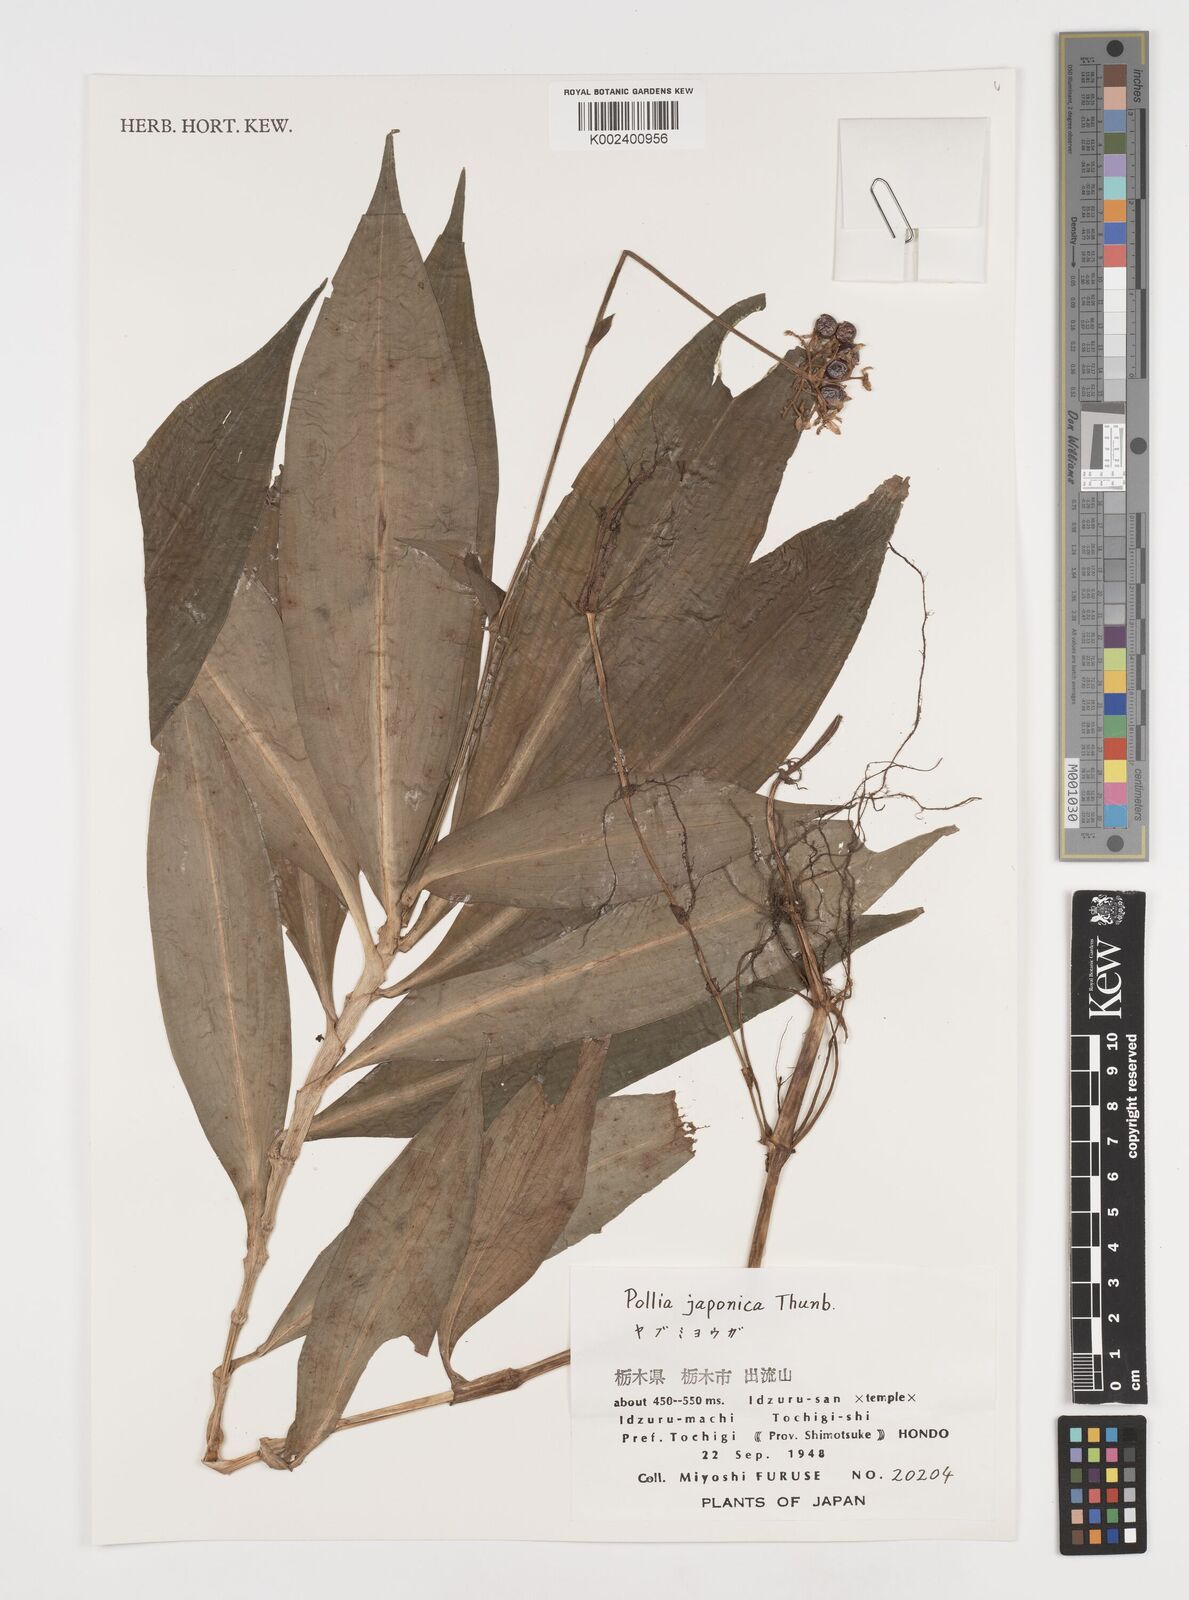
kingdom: Plantae
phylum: Tracheophyta
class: Liliopsida
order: Commelinales
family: Commelinaceae
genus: Pollia
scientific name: Pollia japonica
